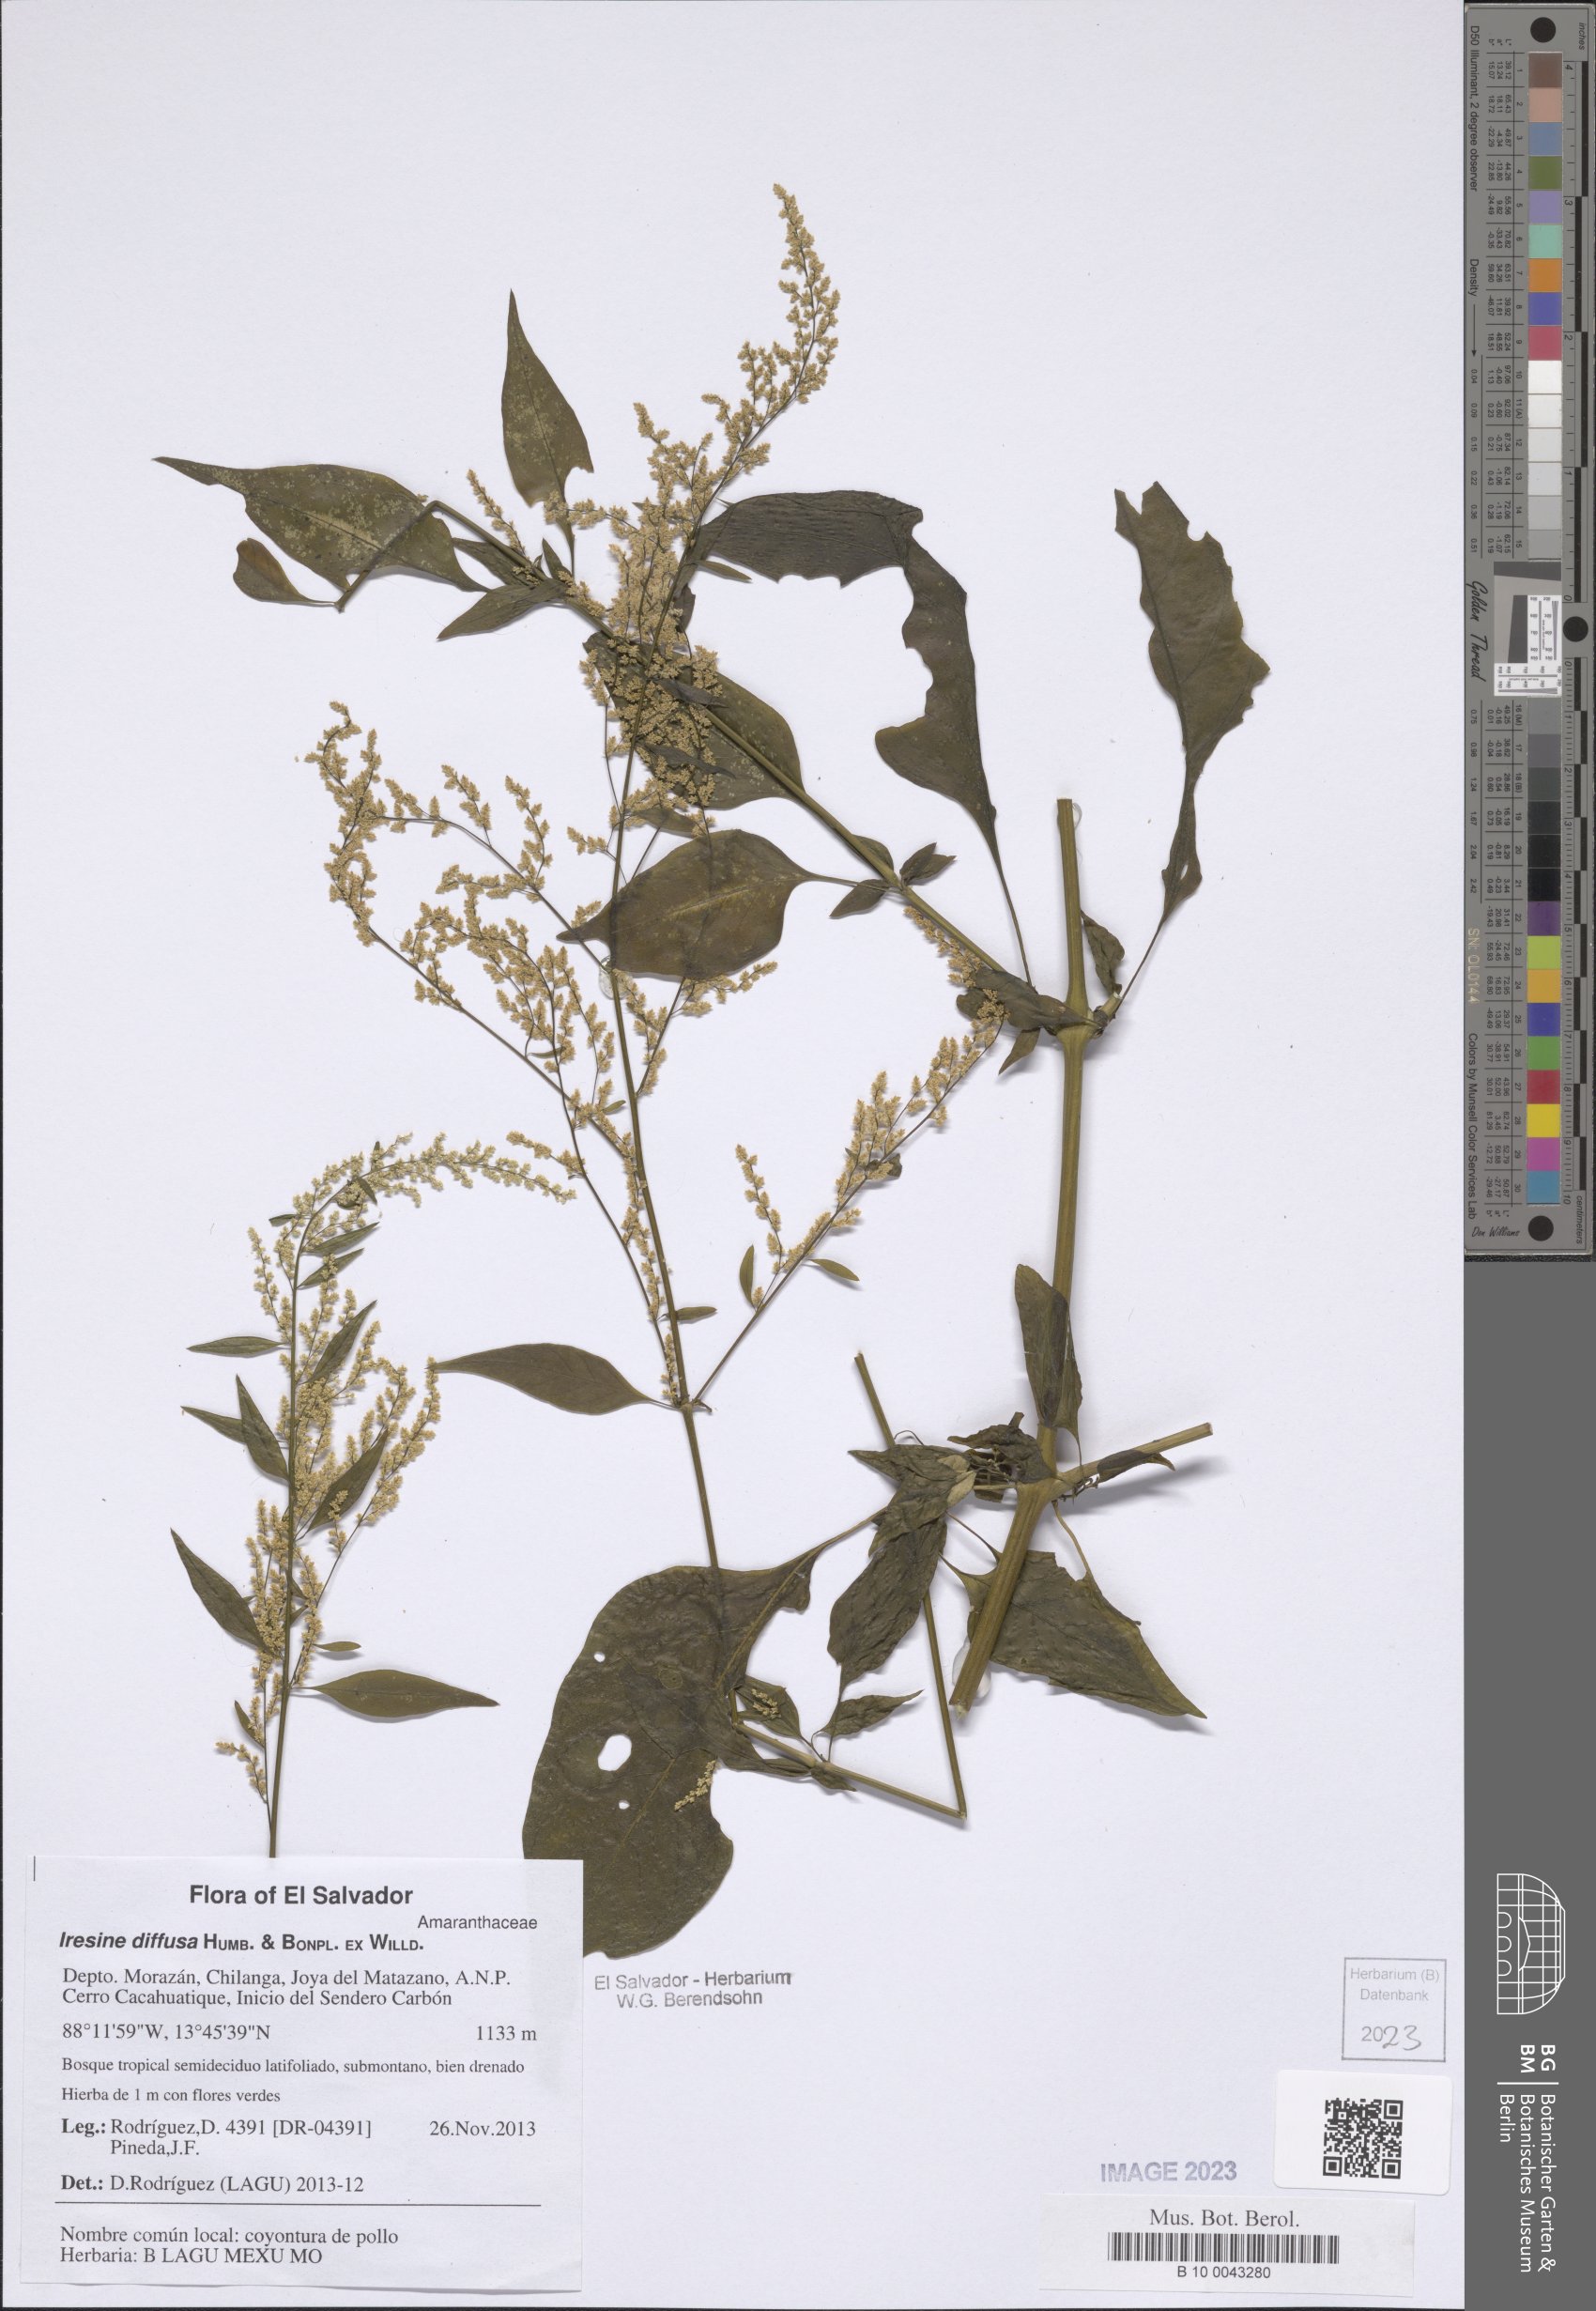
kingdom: Plantae
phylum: Tracheophyta
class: Magnoliopsida
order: Caryophyllales
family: Amaranthaceae
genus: Iresine
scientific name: Iresine diffusa
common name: Juba's-bush
